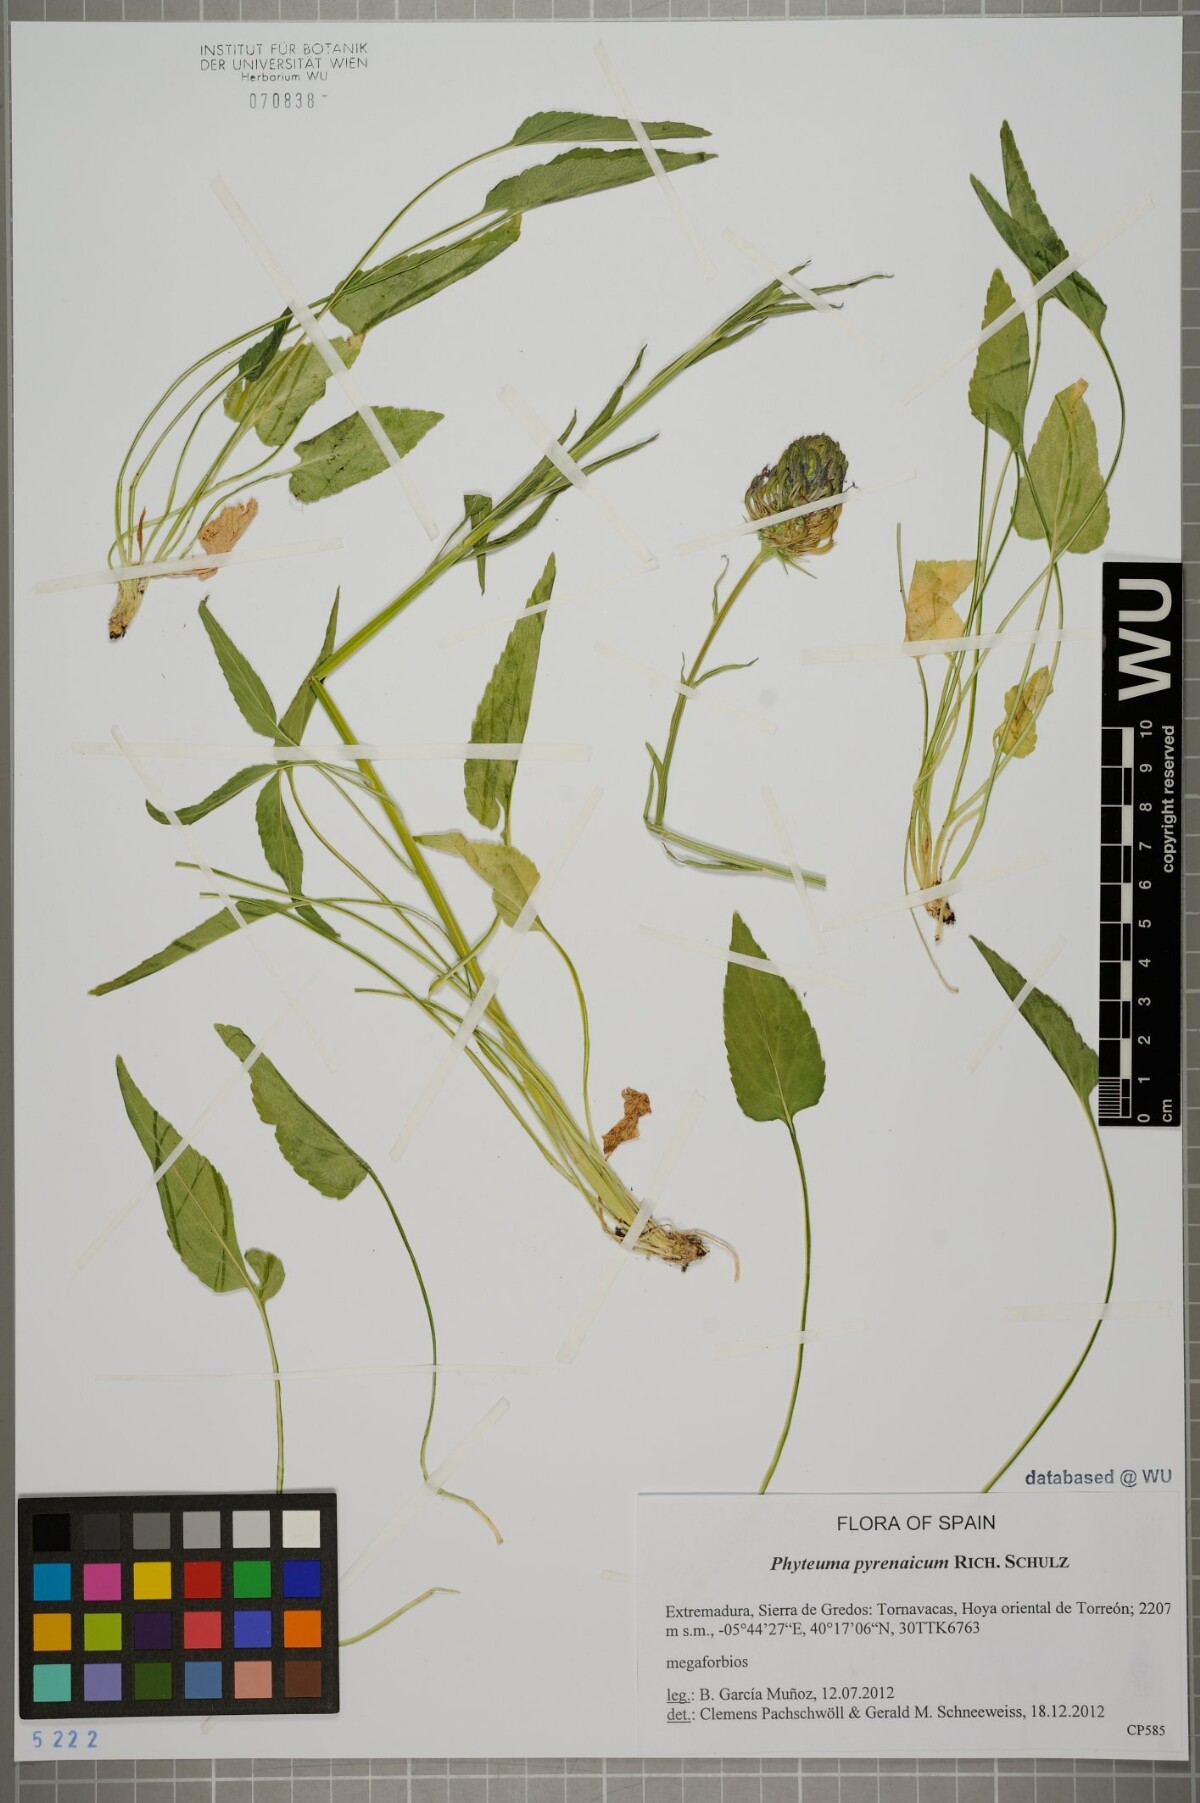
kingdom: Plantae
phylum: Tracheophyta
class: Magnoliopsida
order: Asterales
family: Campanulaceae
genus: Phyteuma
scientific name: Phyteuma spicatum
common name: Spiked rampion
